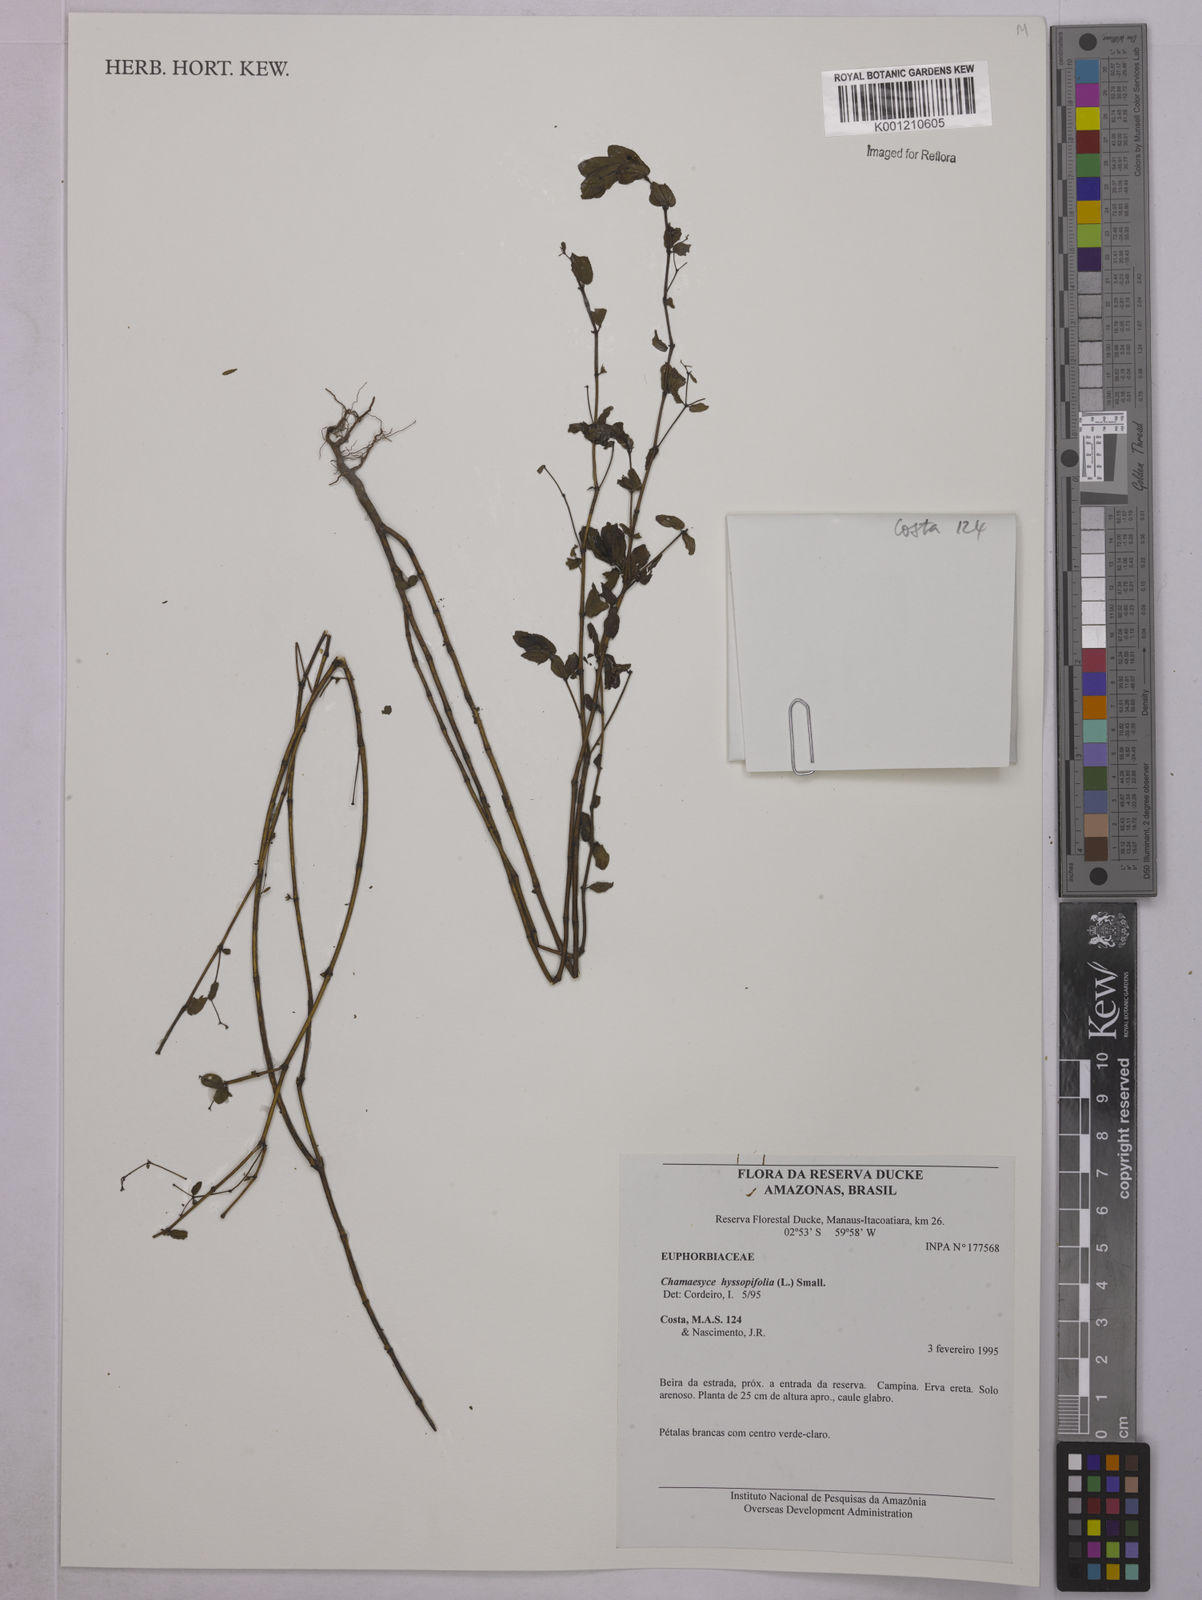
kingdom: Plantae
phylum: Tracheophyta
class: Magnoliopsida
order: Malpighiales
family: Euphorbiaceae
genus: Euphorbia
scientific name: Euphorbia hyssopifolia
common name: Hyssopleaf sandmat
